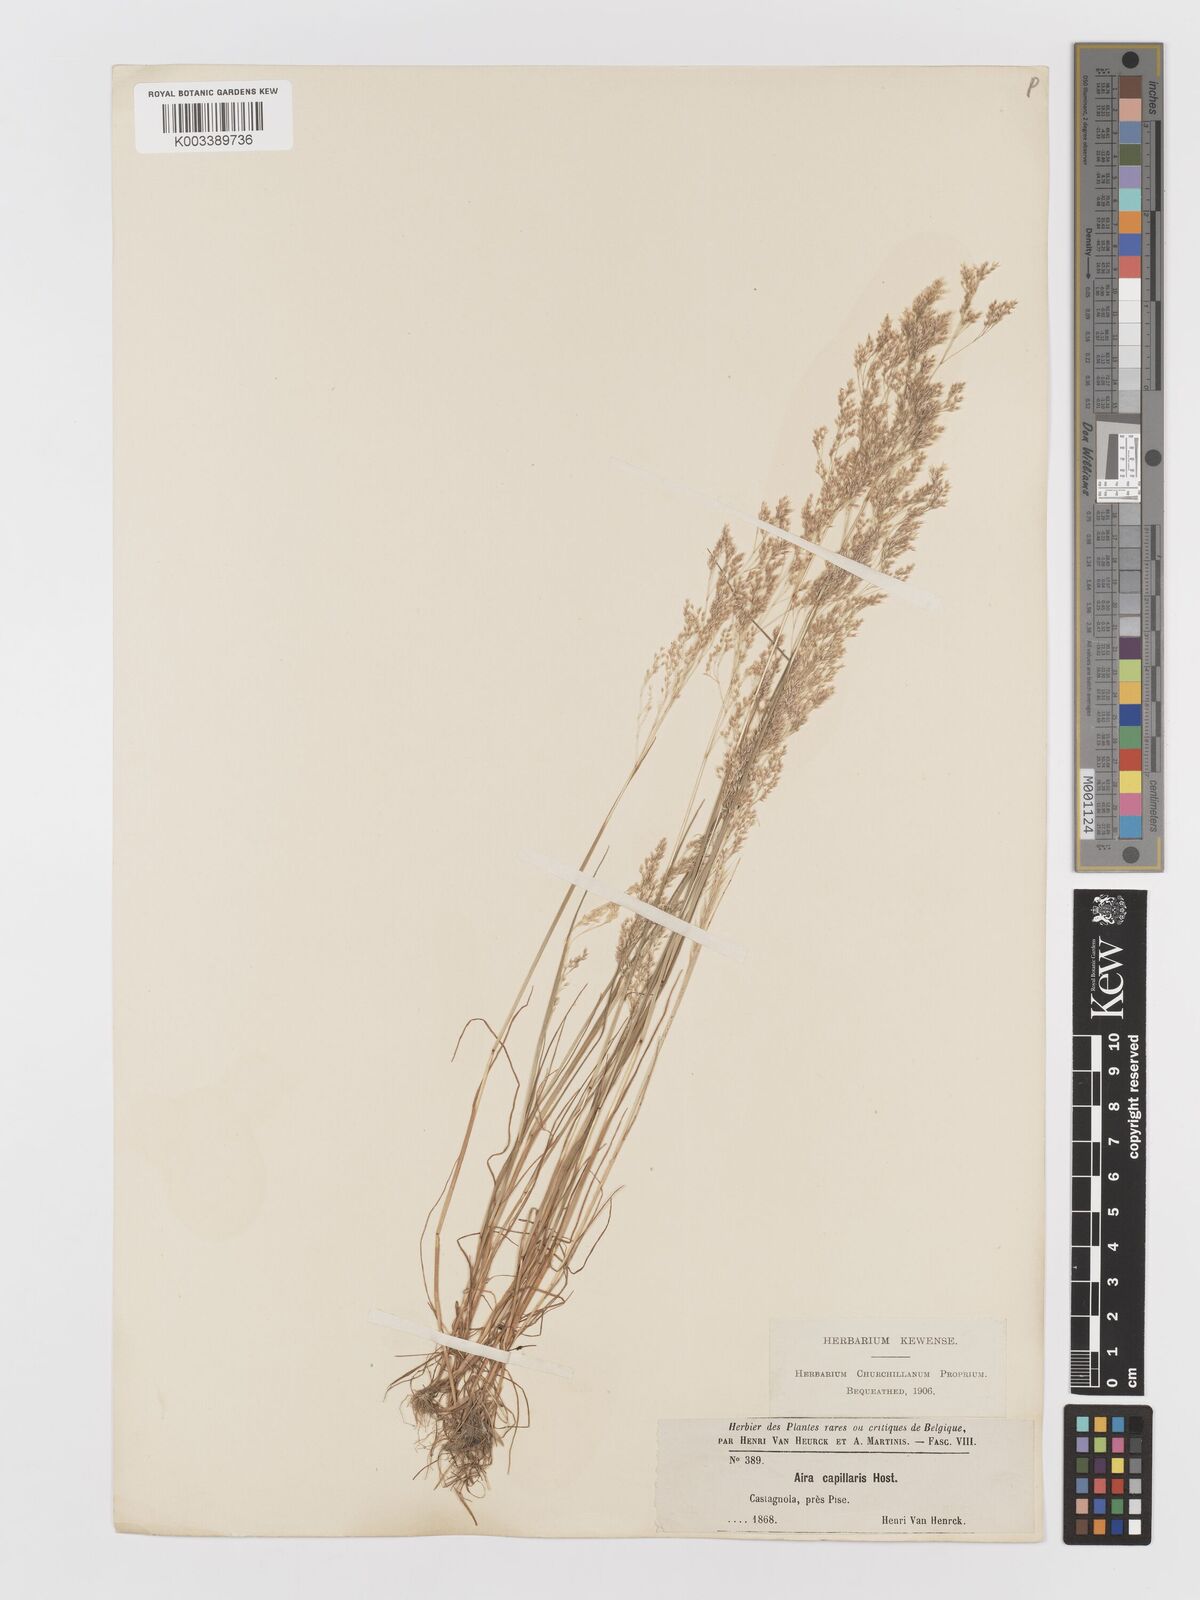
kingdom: Plantae
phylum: Tracheophyta
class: Liliopsida
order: Poales
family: Poaceae
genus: Aira
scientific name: Aira cupaniana
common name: Silver hairgrass
